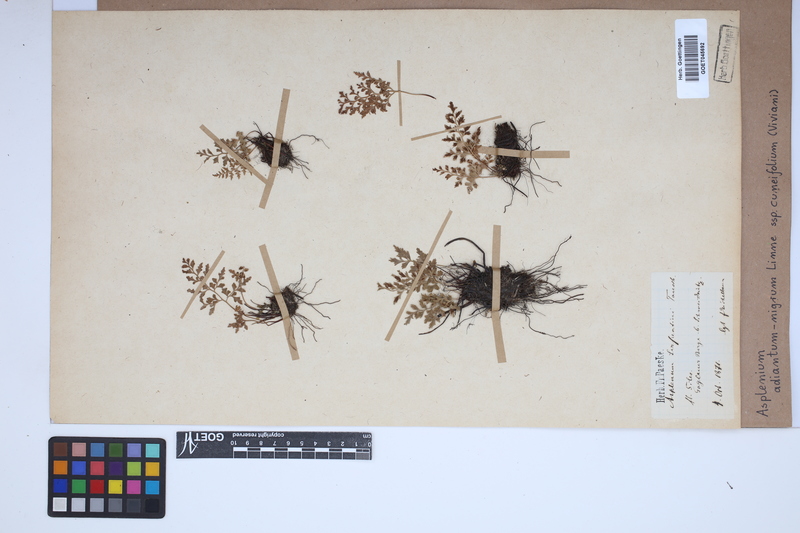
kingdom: Plantae
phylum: Tracheophyta
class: Polypodiopsida
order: Polypodiales
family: Aspleniaceae
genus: Asplenium
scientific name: Asplenium cuneifolium
